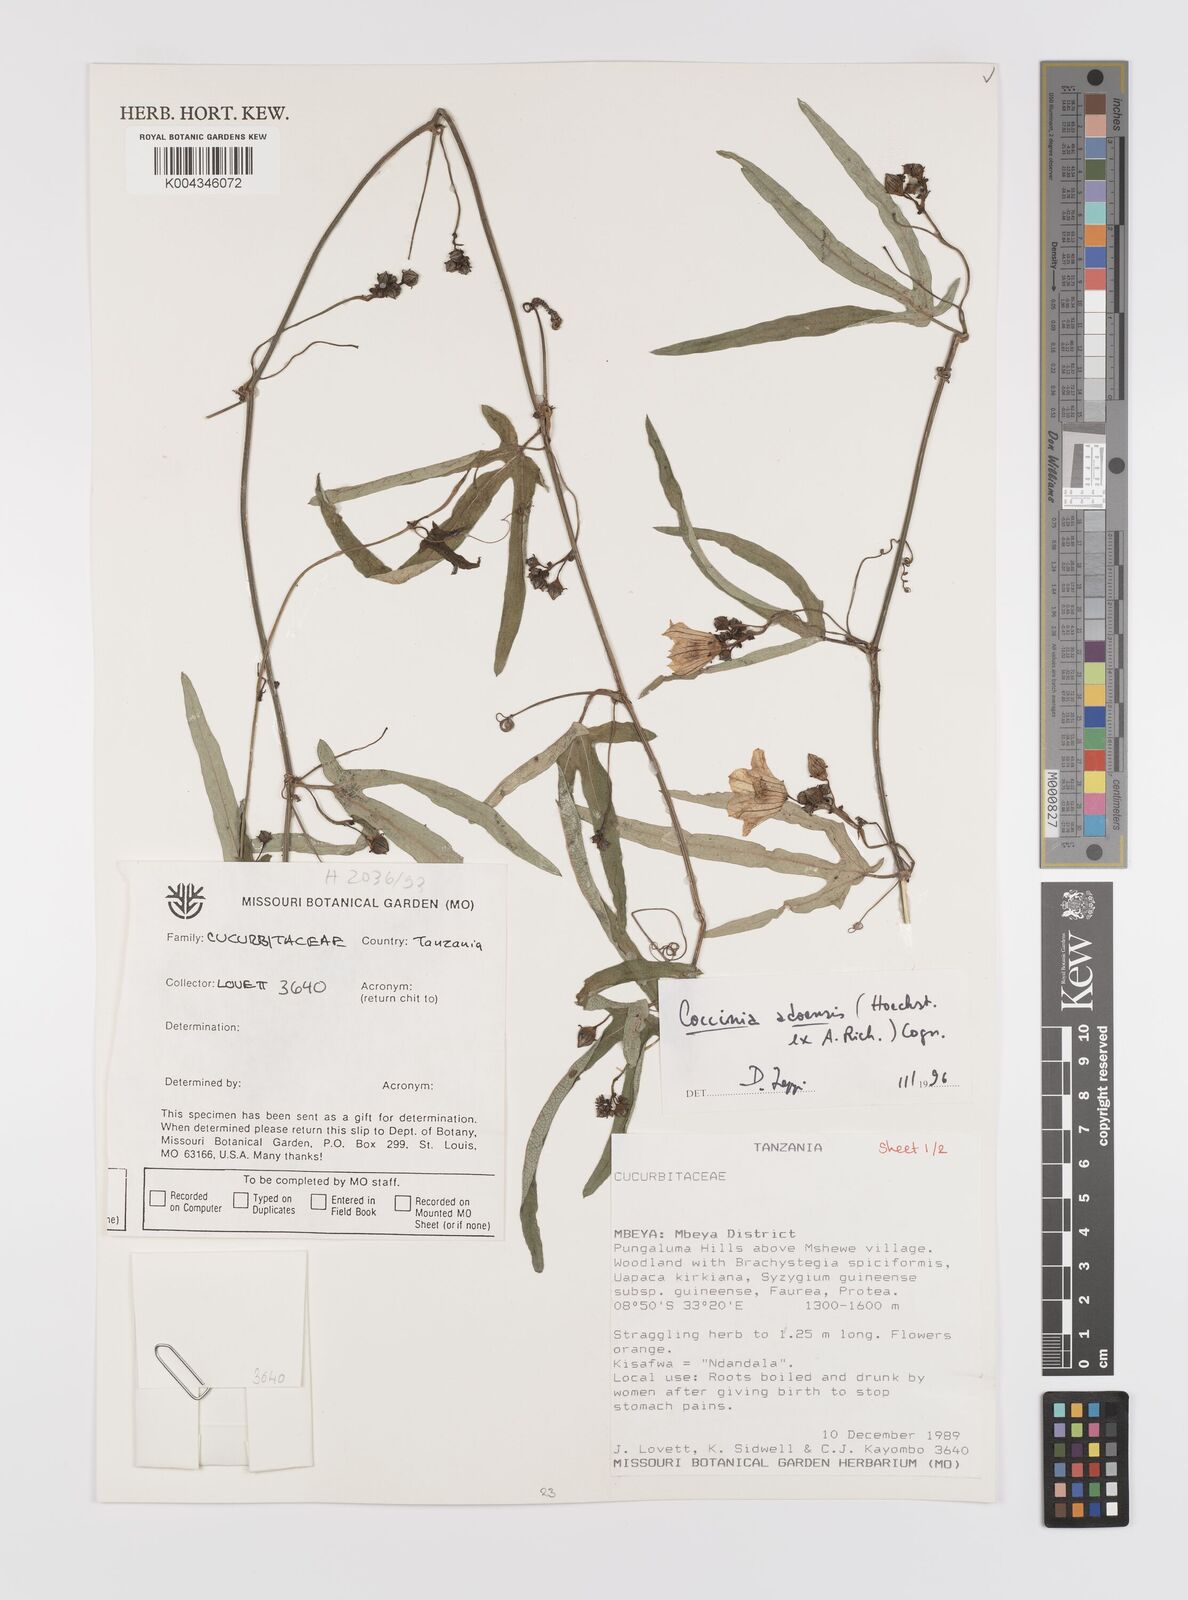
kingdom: Plantae
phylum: Tracheophyta
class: Magnoliopsida
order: Cucurbitales
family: Cucurbitaceae
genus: Coccinia
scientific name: Coccinia adoensis
